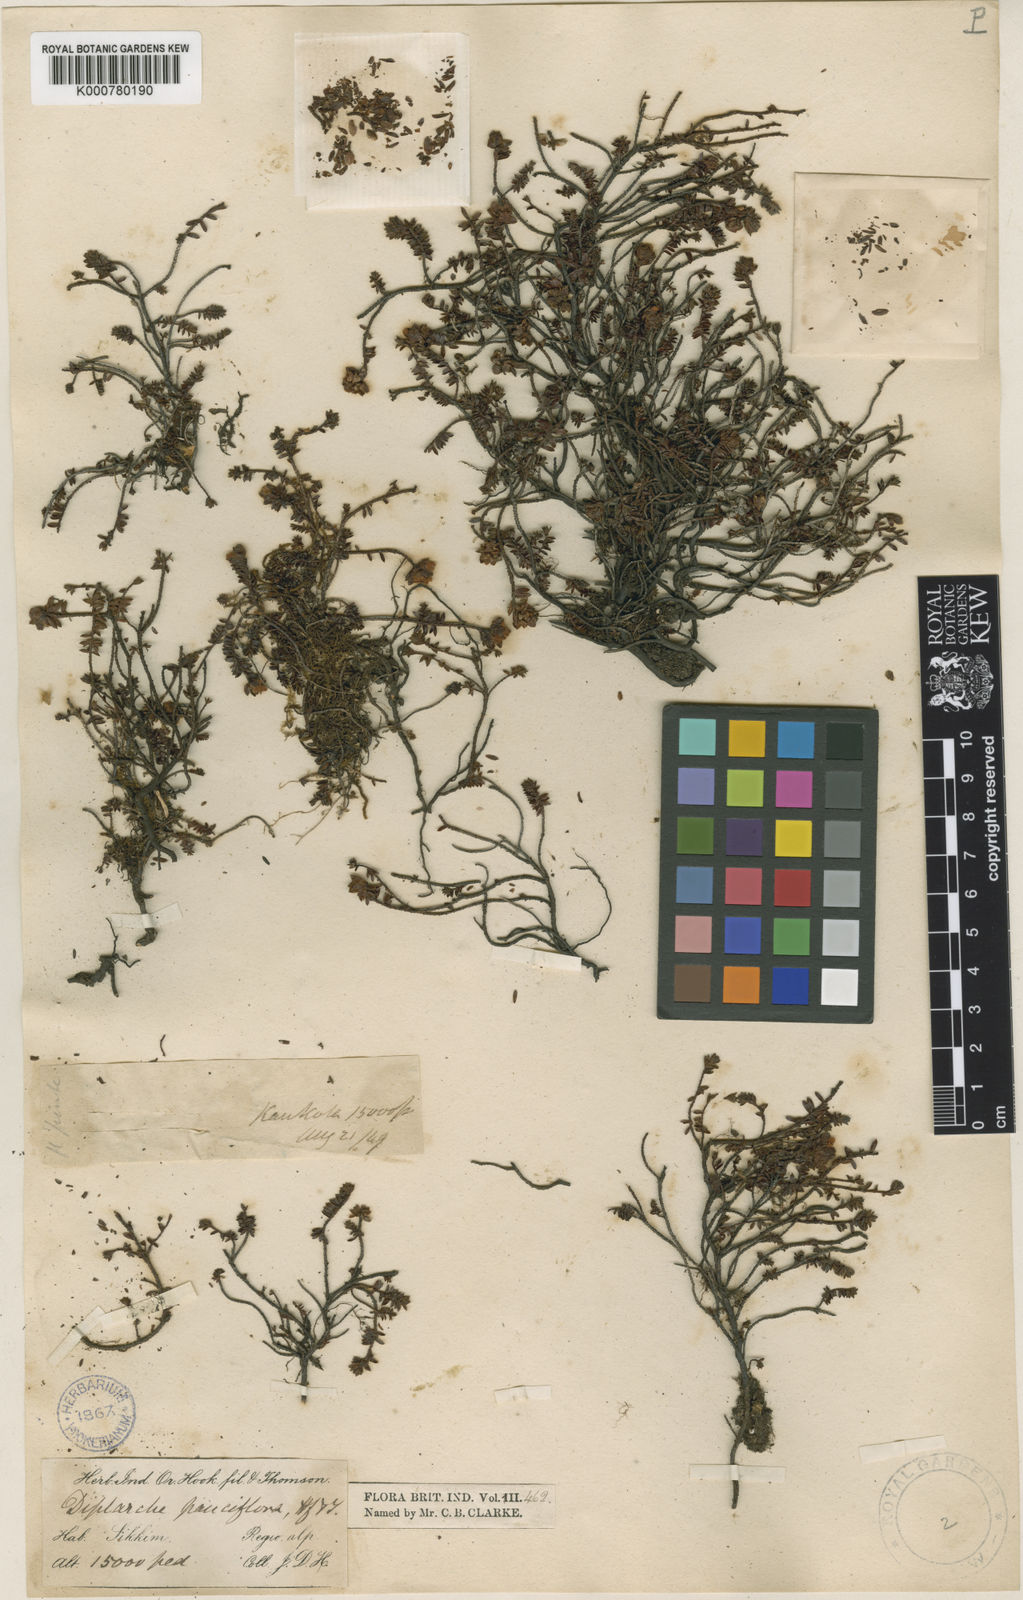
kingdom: Plantae
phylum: Tracheophyta
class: Magnoliopsida
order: Ericales
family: Ericaceae
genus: Rhododendron
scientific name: Rhododendron sophistarum
